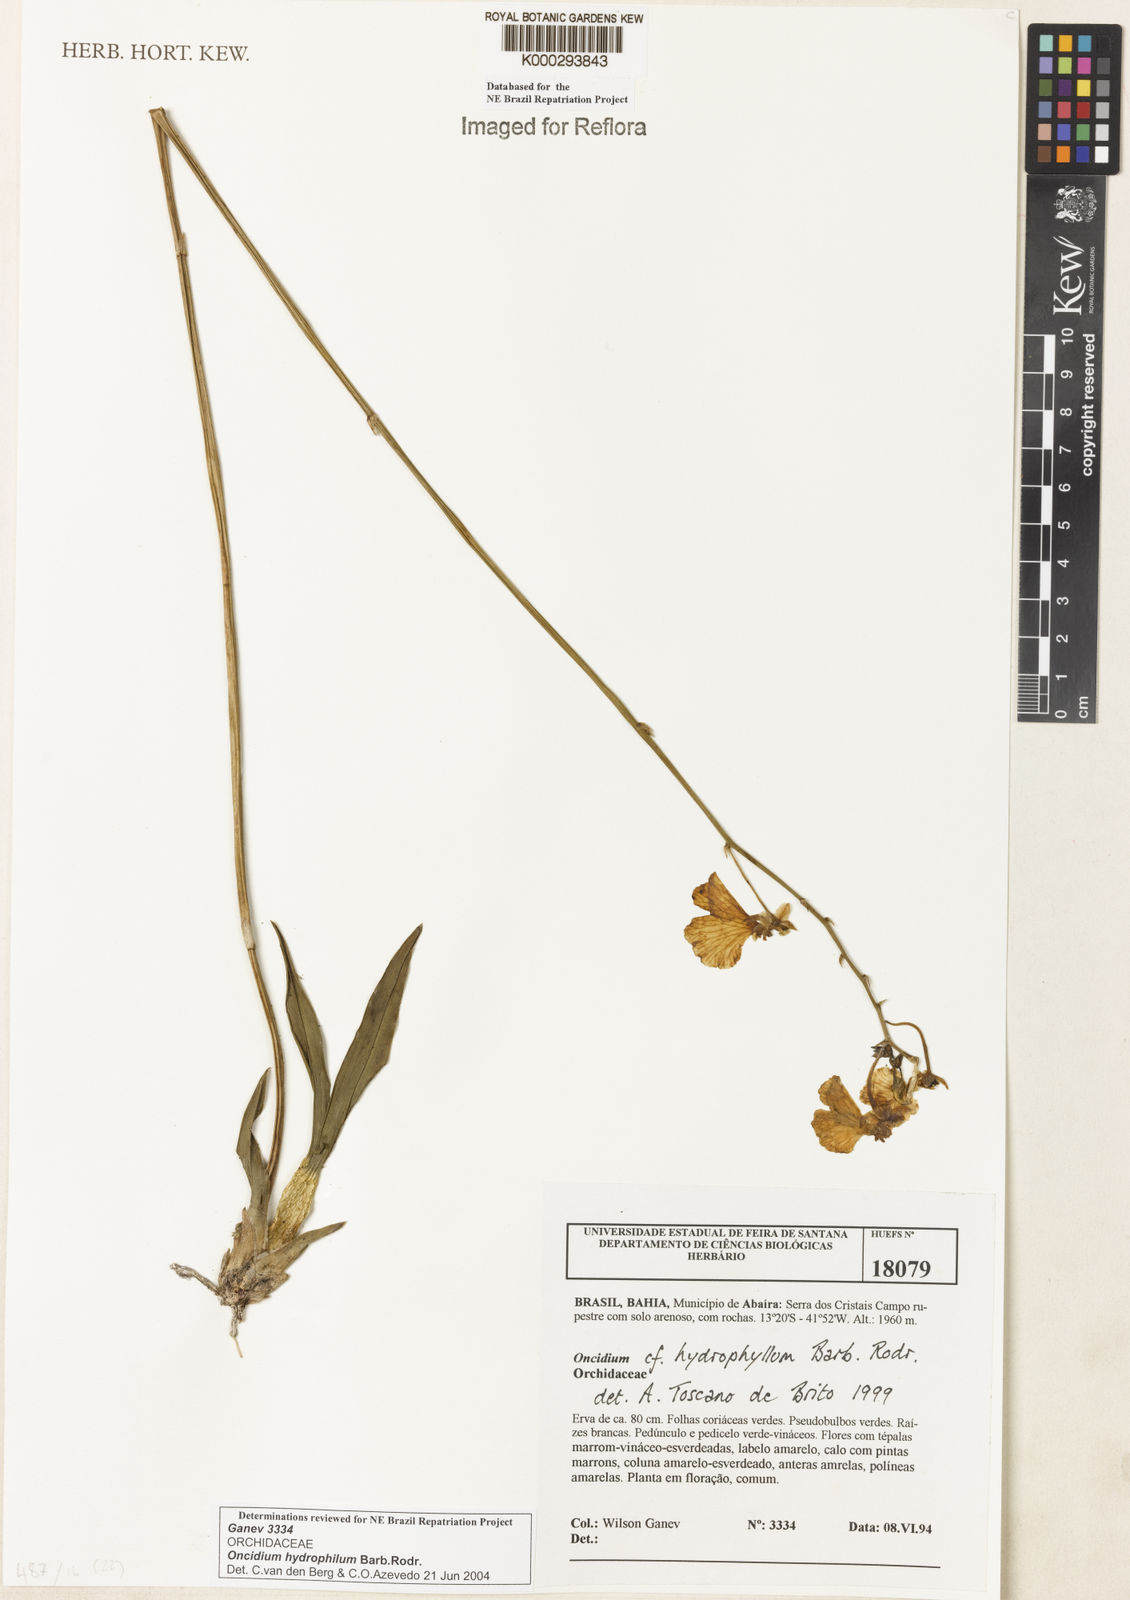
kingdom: Plantae
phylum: Tracheophyta
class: Liliopsida
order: Asparagales
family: Orchidaceae
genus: Gomesa
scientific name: Gomesa sincorana
